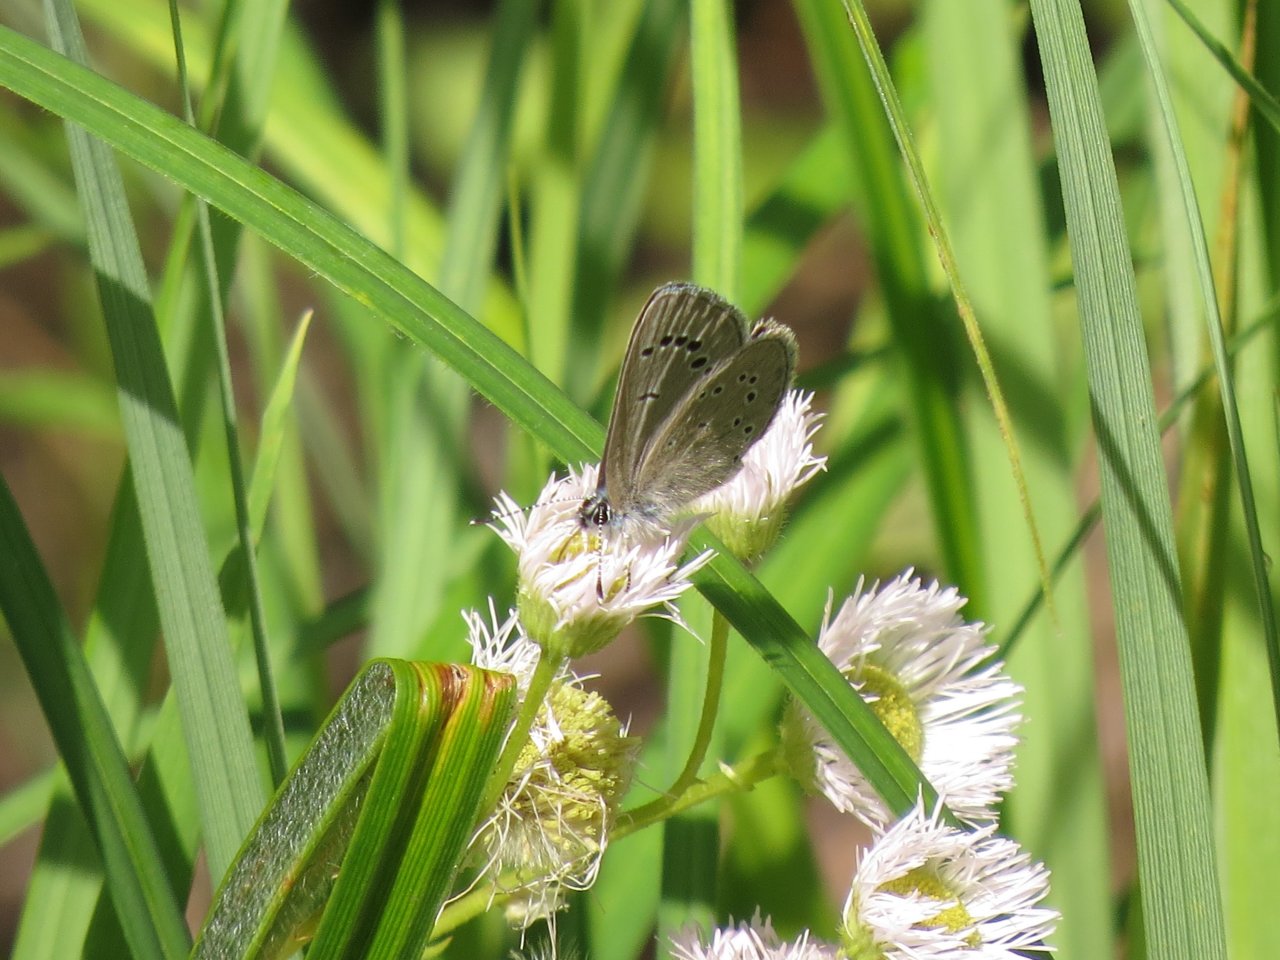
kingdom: Animalia
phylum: Arthropoda
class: Insecta
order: Lepidoptera
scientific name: Lepidoptera
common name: Butterflies
